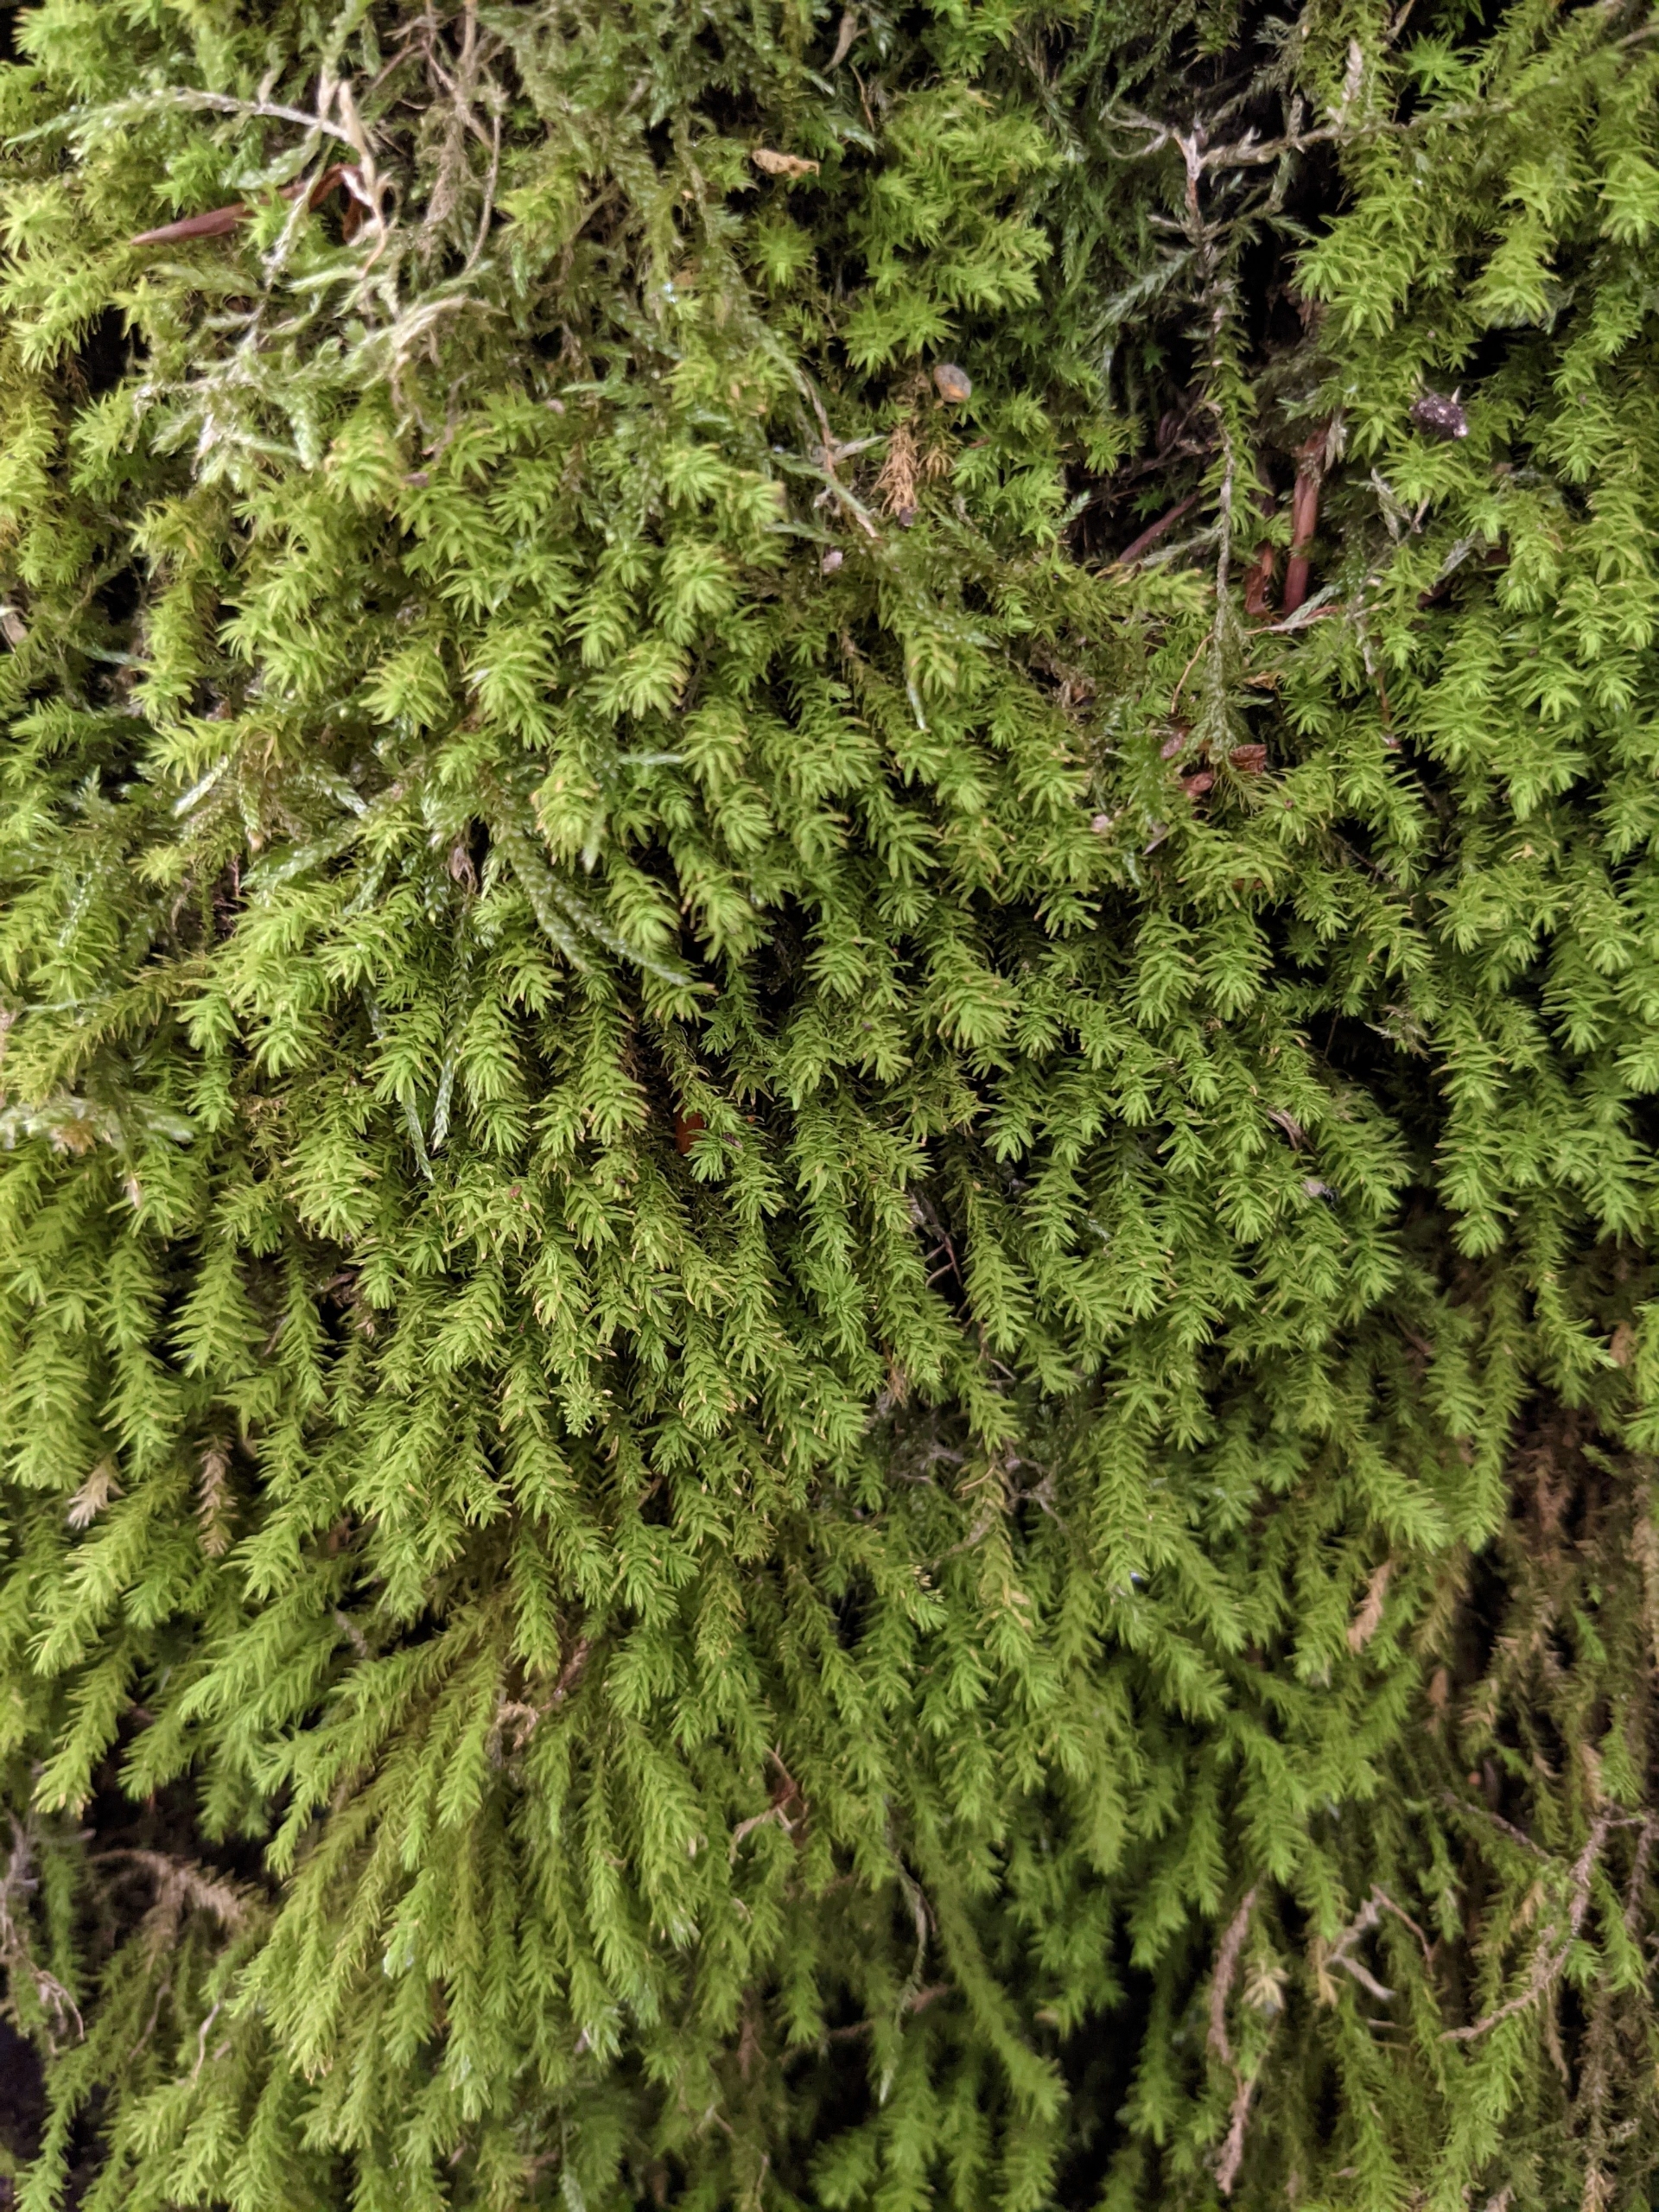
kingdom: Plantae
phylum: Bryophyta
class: Bryopsida
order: Hypnales
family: Anomodontaceae
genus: Anomodon
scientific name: Anomodon viticulosus
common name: Robust matblad
